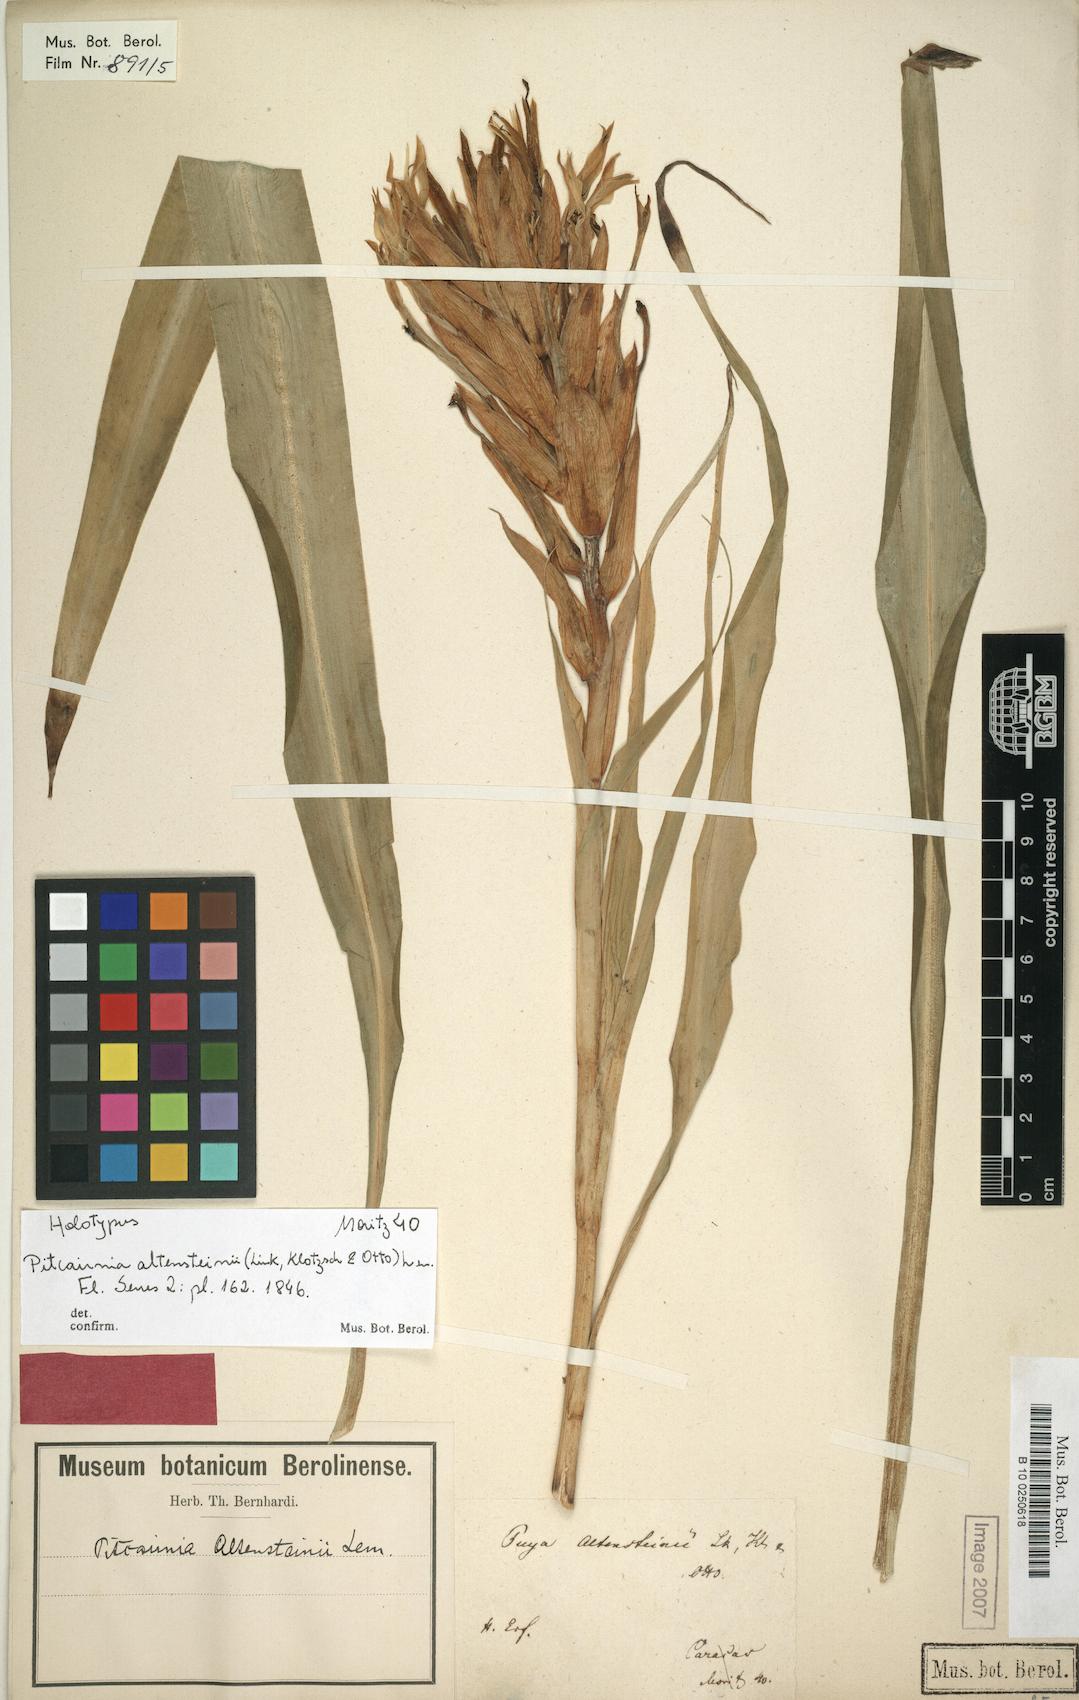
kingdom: Plantae
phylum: Tracheophyta
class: Liliopsida
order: Poales
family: Bromeliaceae
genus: Pitcairnia
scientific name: Pitcairnia altensteinii
